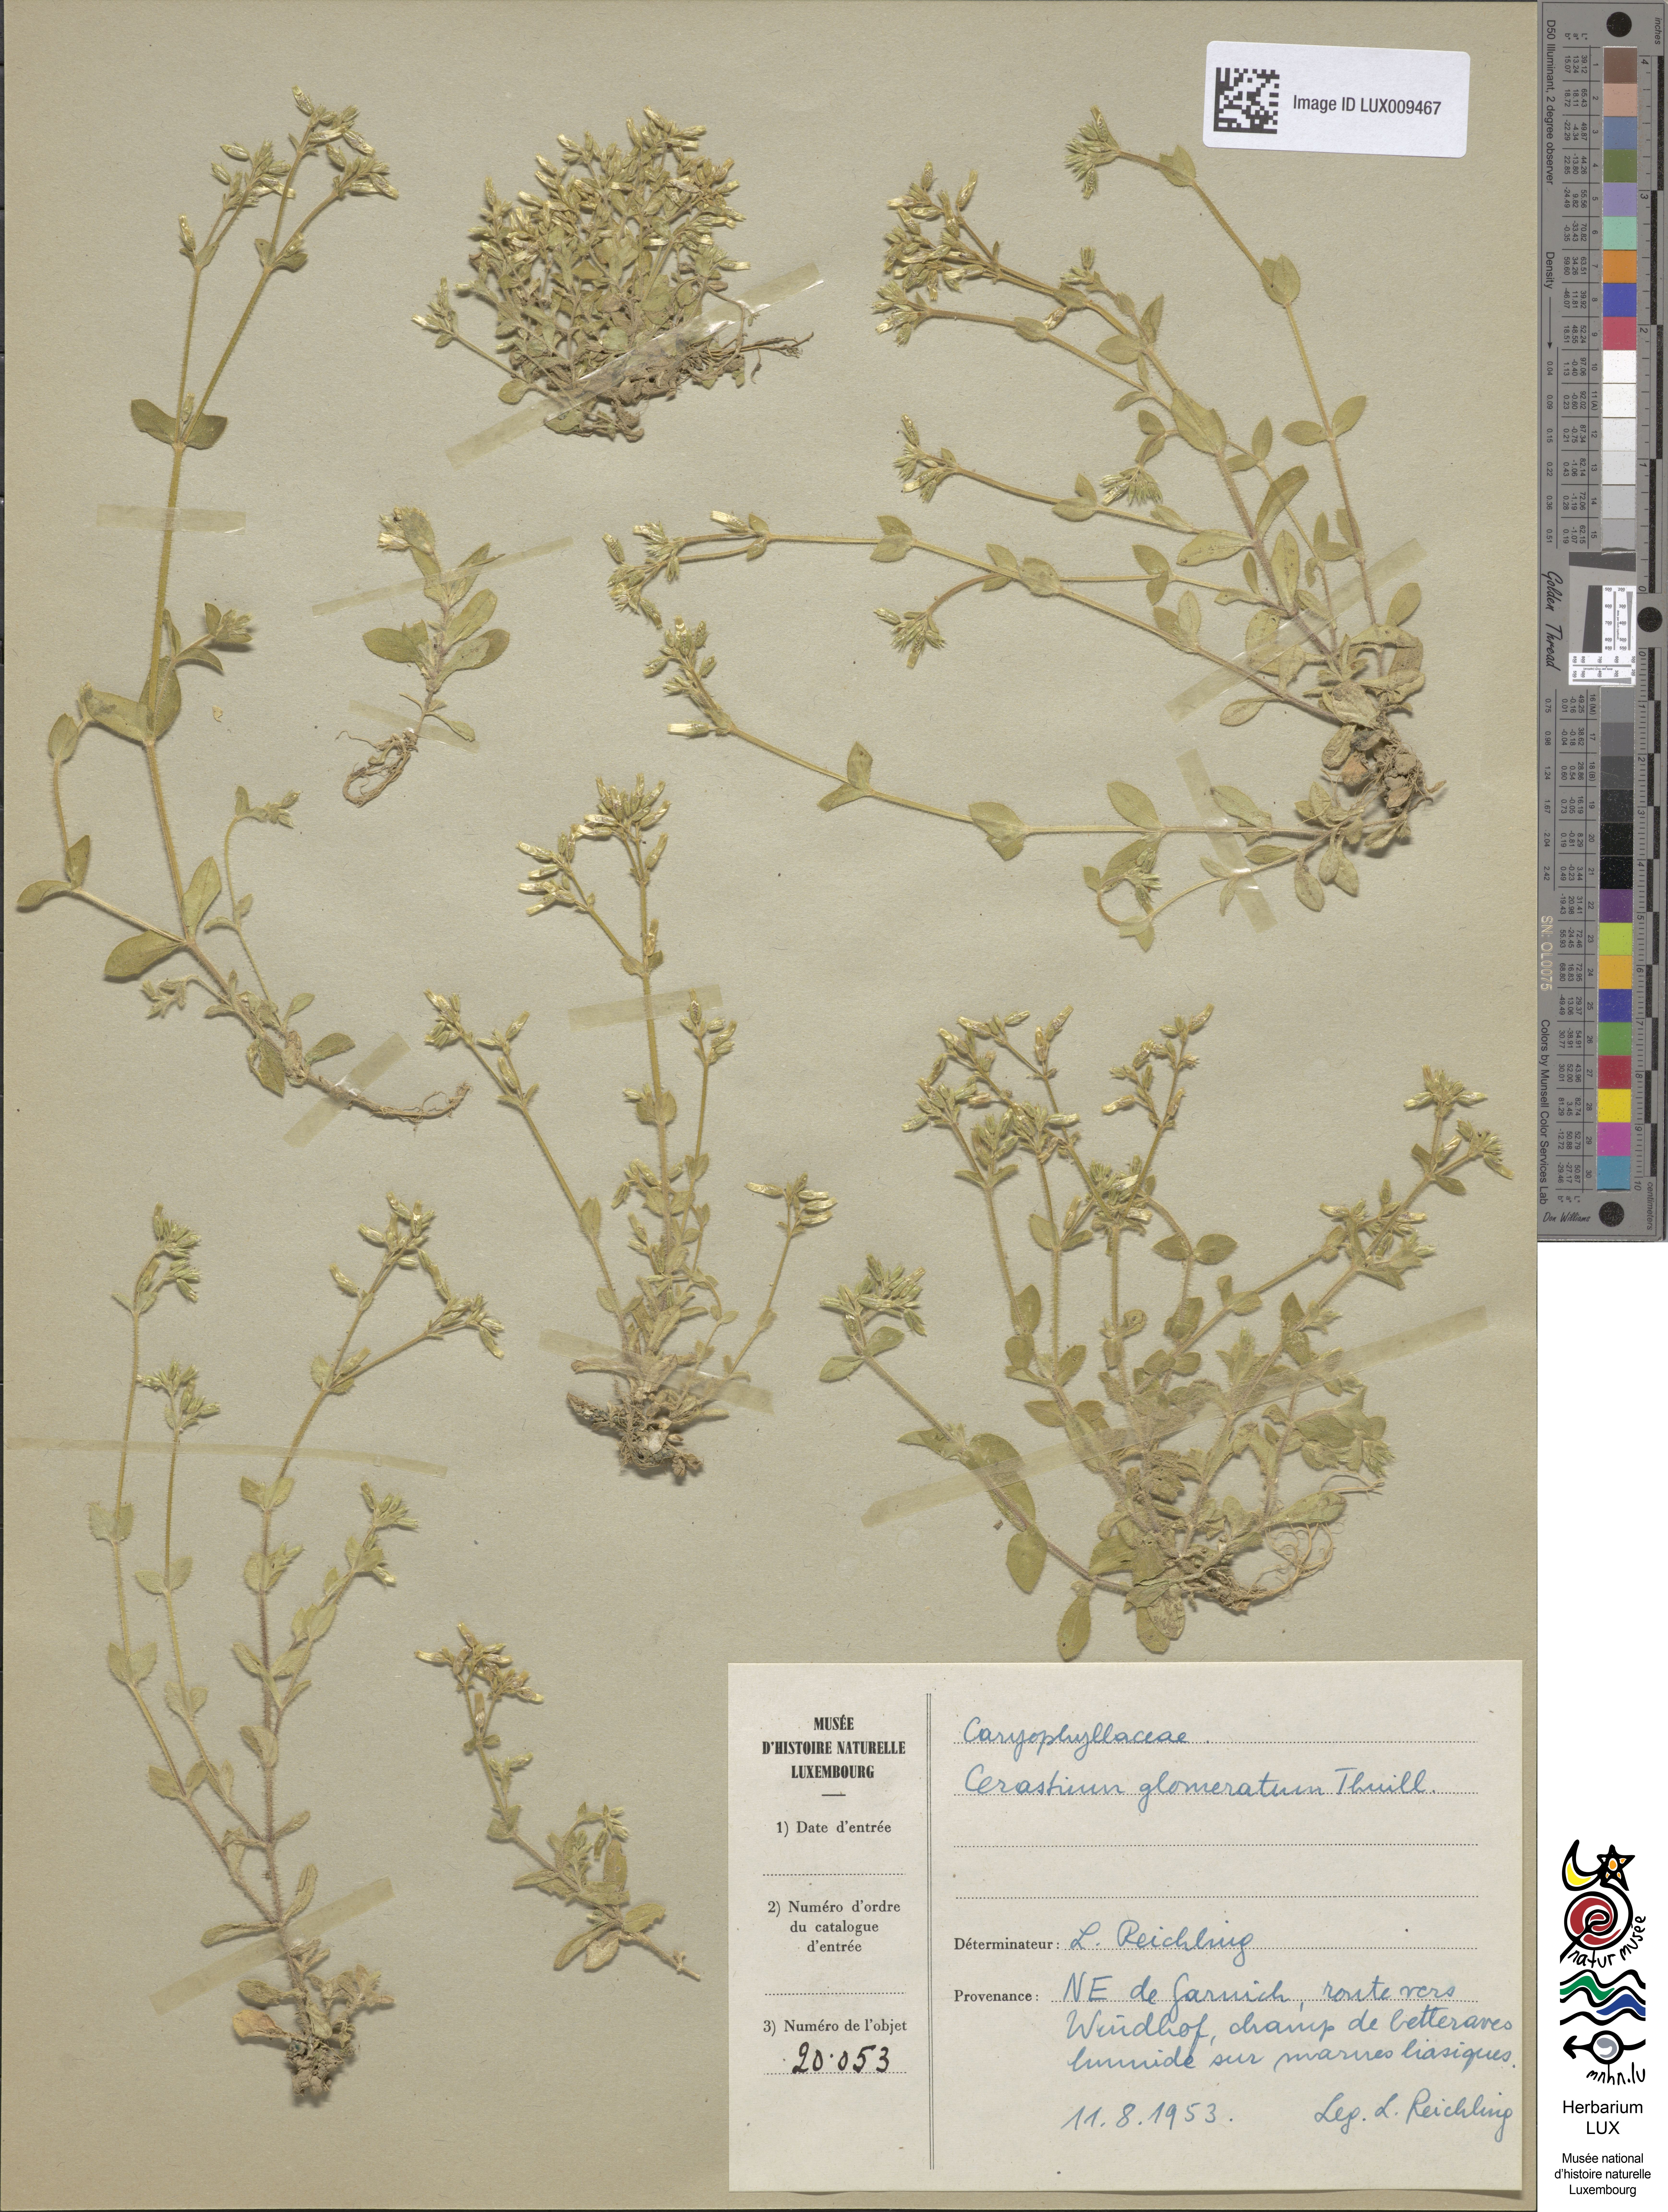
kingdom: Plantae
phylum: Tracheophyta
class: Magnoliopsida
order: Caryophyllales
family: Caryophyllaceae
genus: Cerastium
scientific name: Cerastium glomeratum
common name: Sticky chickweed
